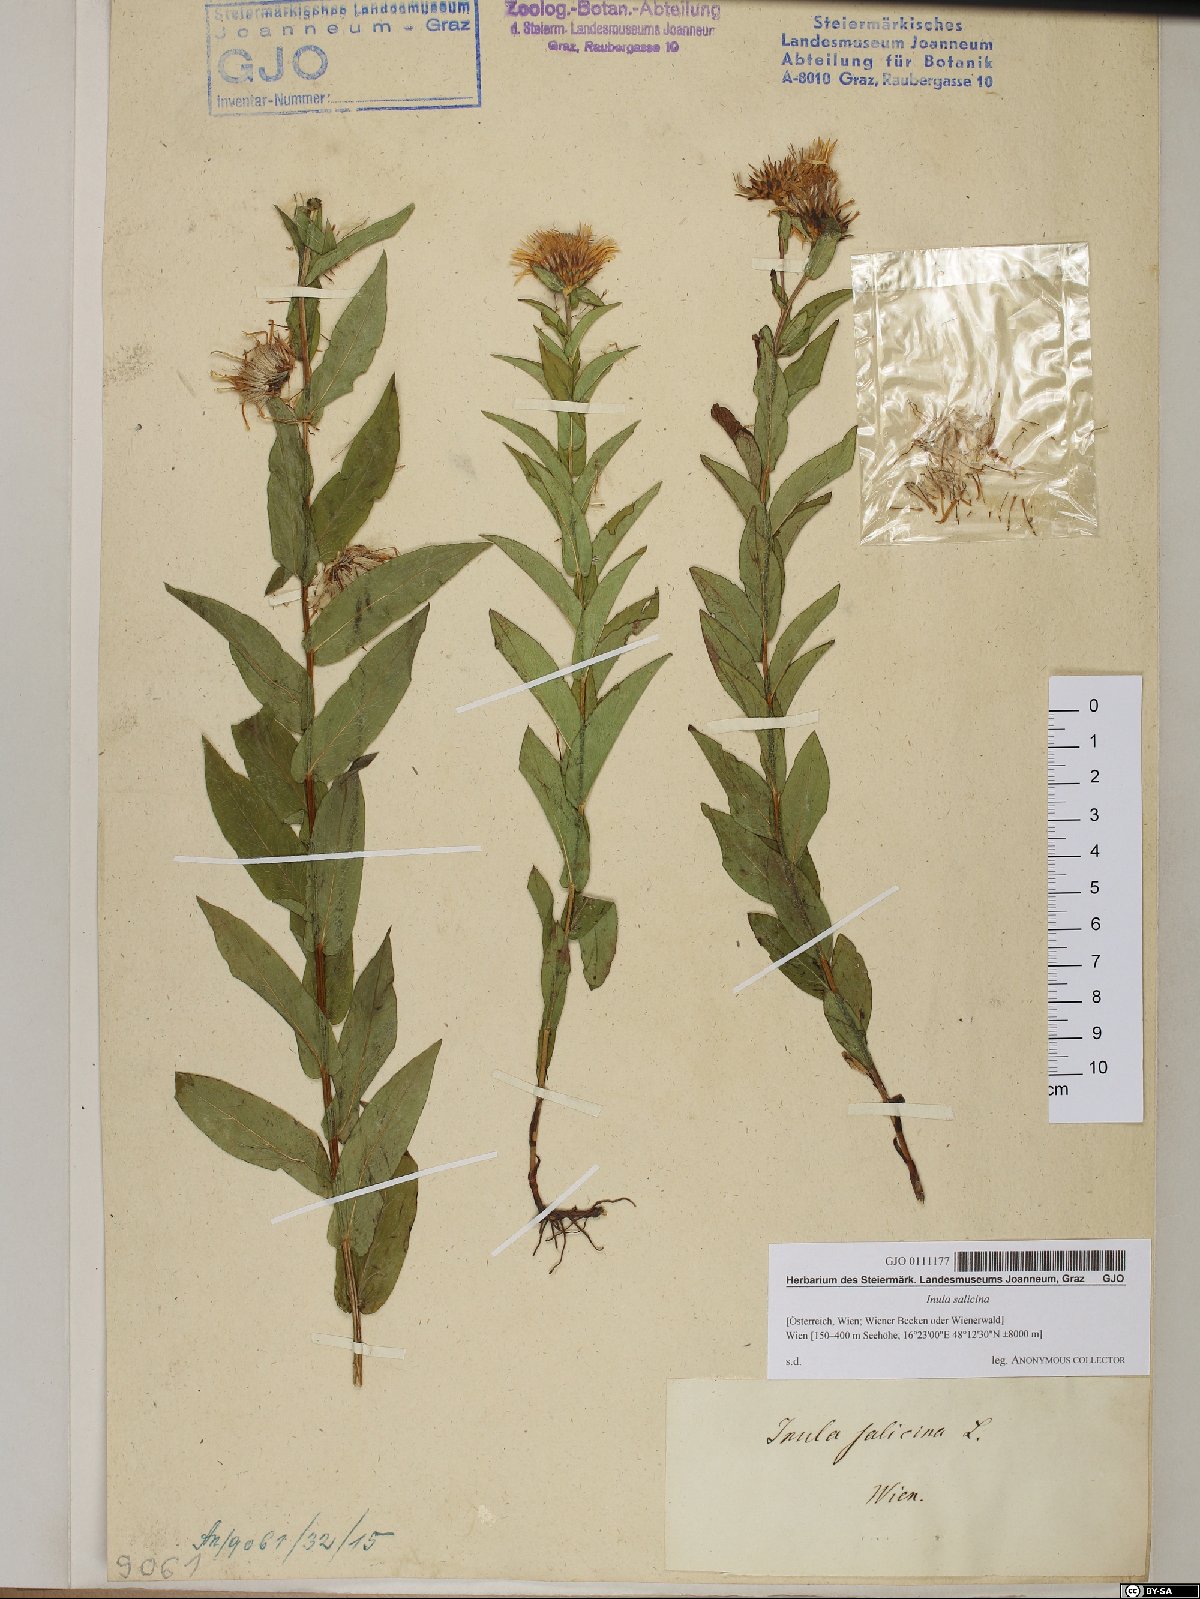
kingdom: Plantae
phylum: Tracheophyta
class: Magnoliopsida
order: Asterales
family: Asteraceae
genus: Pentanema
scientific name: Pentanema salicinum
